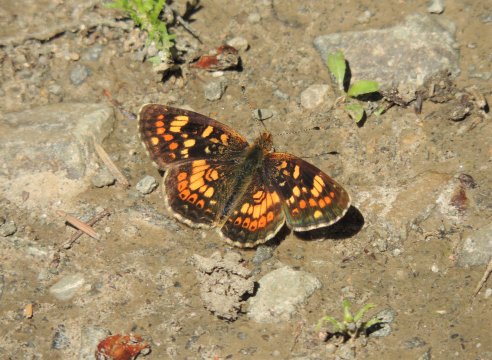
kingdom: Animalia
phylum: Arthropoda
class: Insecta
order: Lepidoptera
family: Nymphalidae
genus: Phyciodes
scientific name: Phyciodes tharos
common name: Field Crescent
